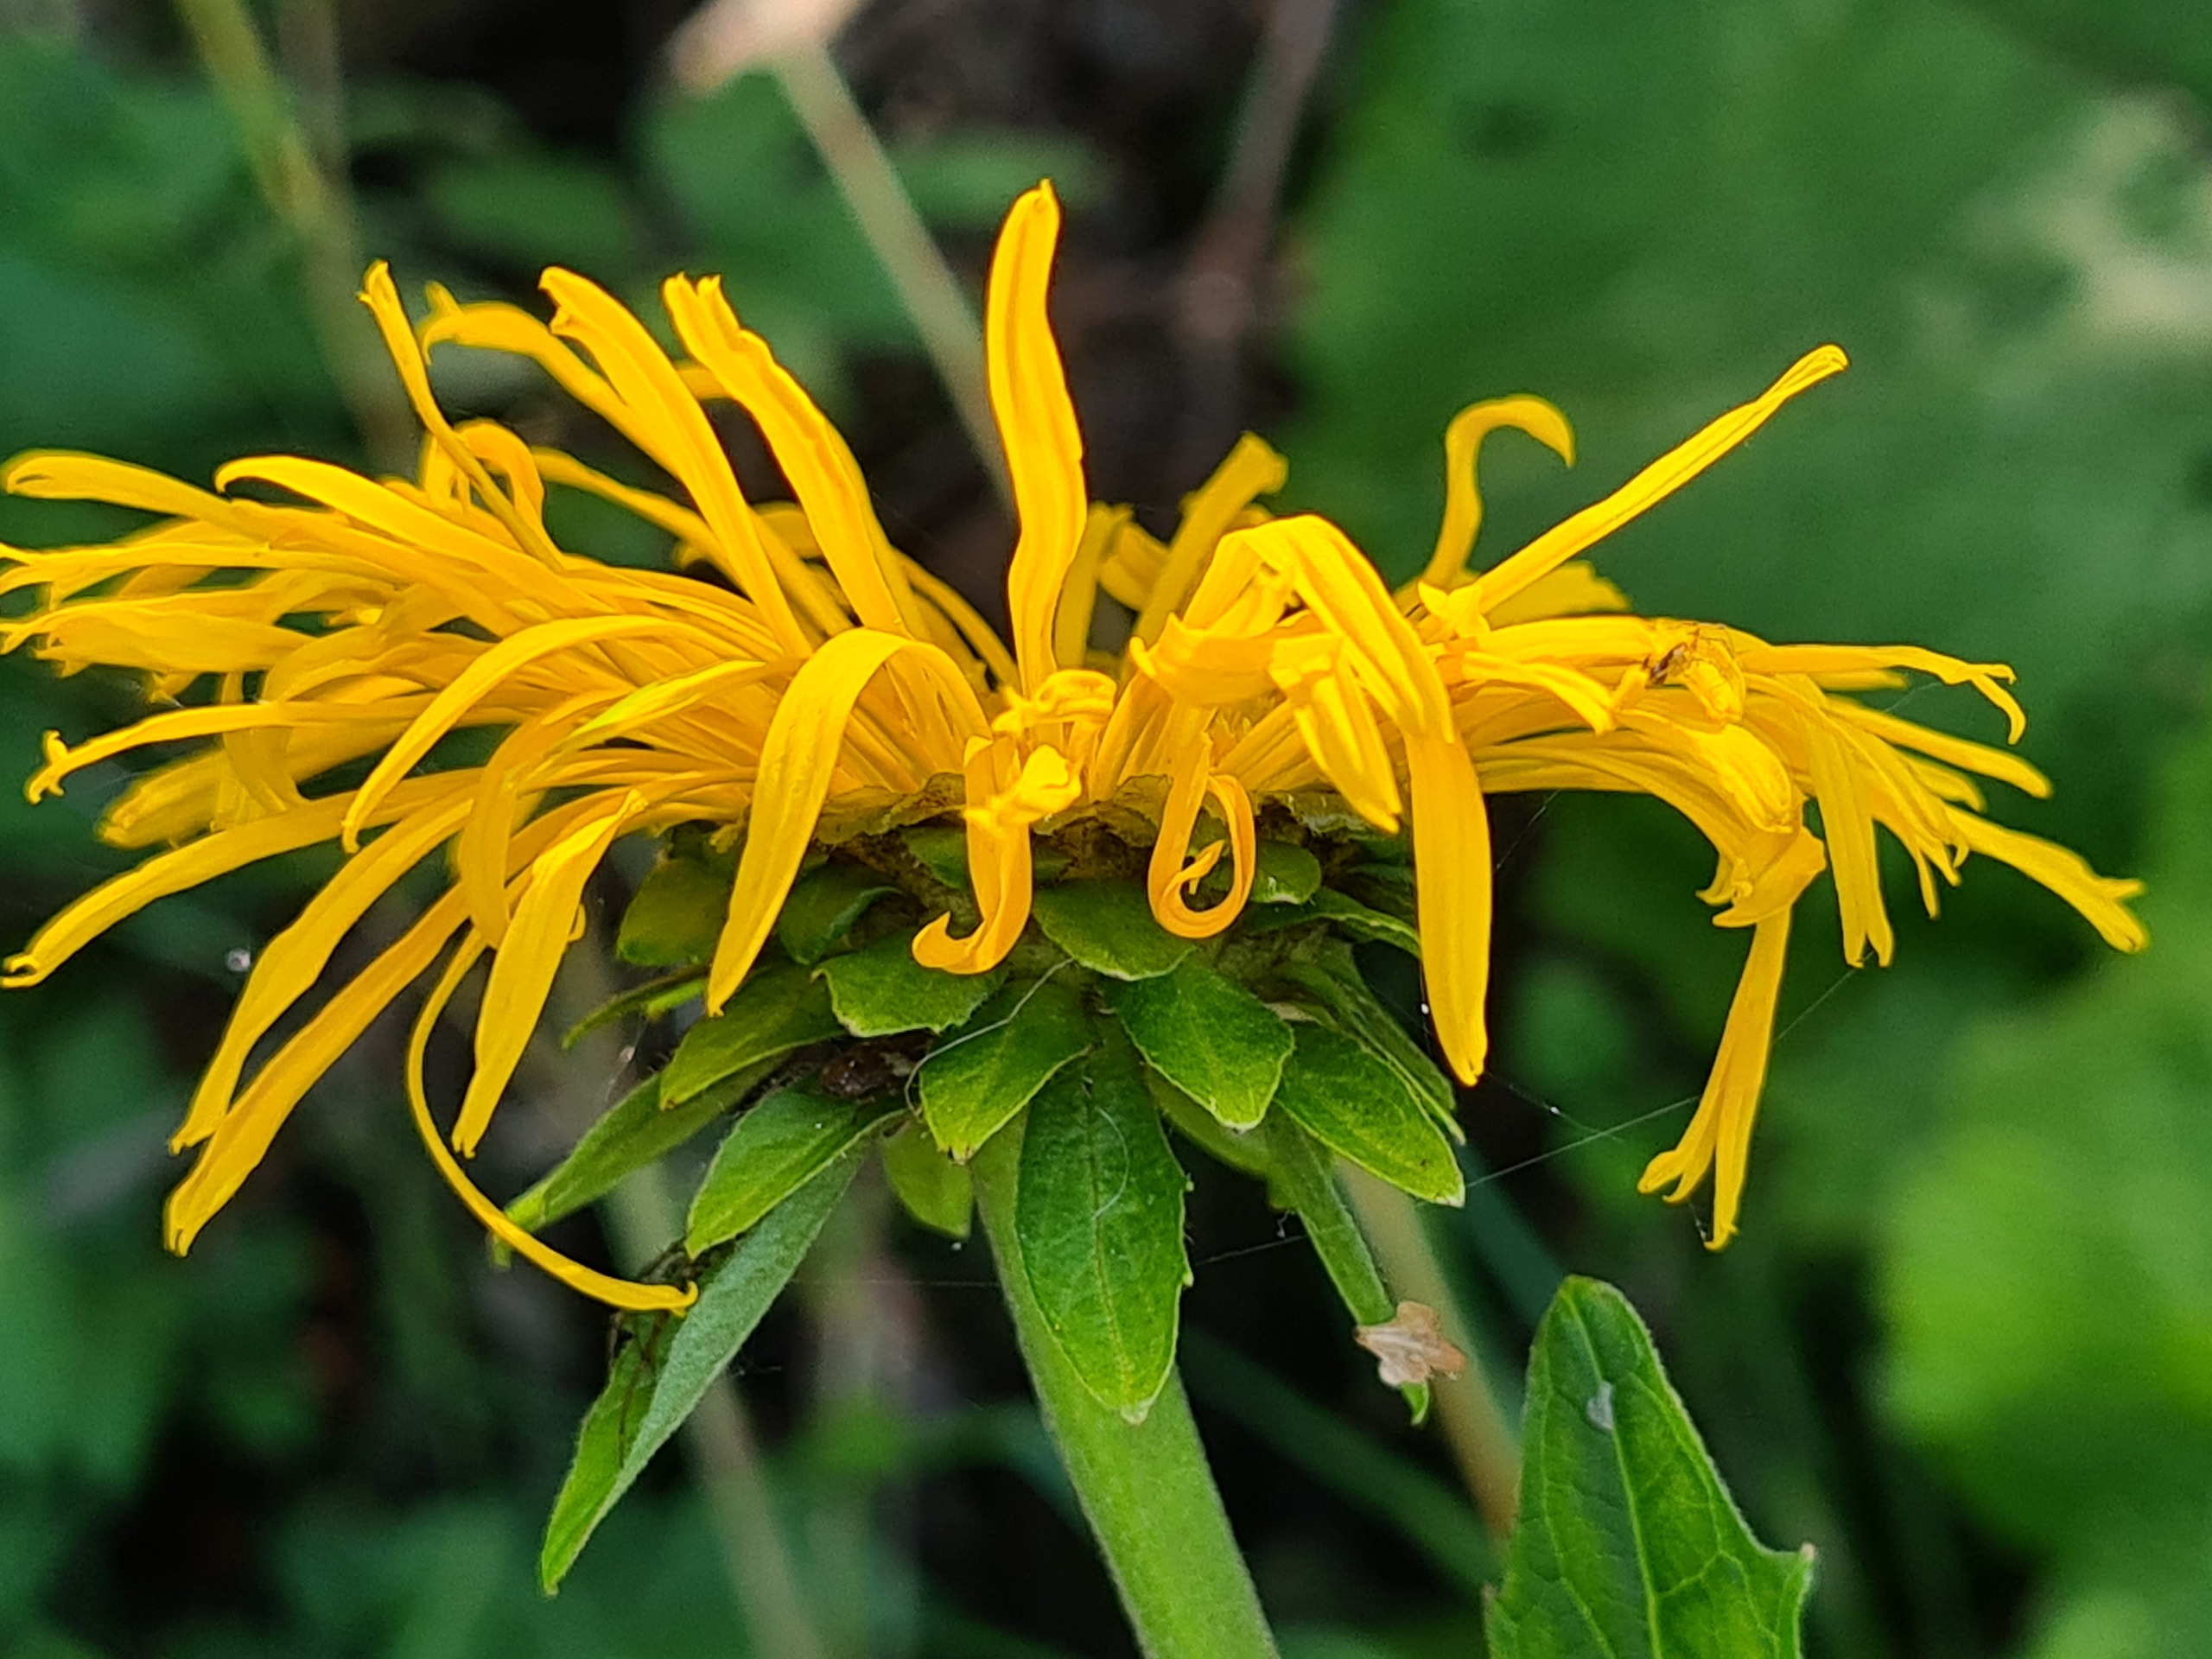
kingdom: Plantae
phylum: Tracheophyta
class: Magnoliopsida
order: Asterales
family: Asteraceae
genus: Telekia
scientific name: Telekia speciosa
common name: Tusindstråle
